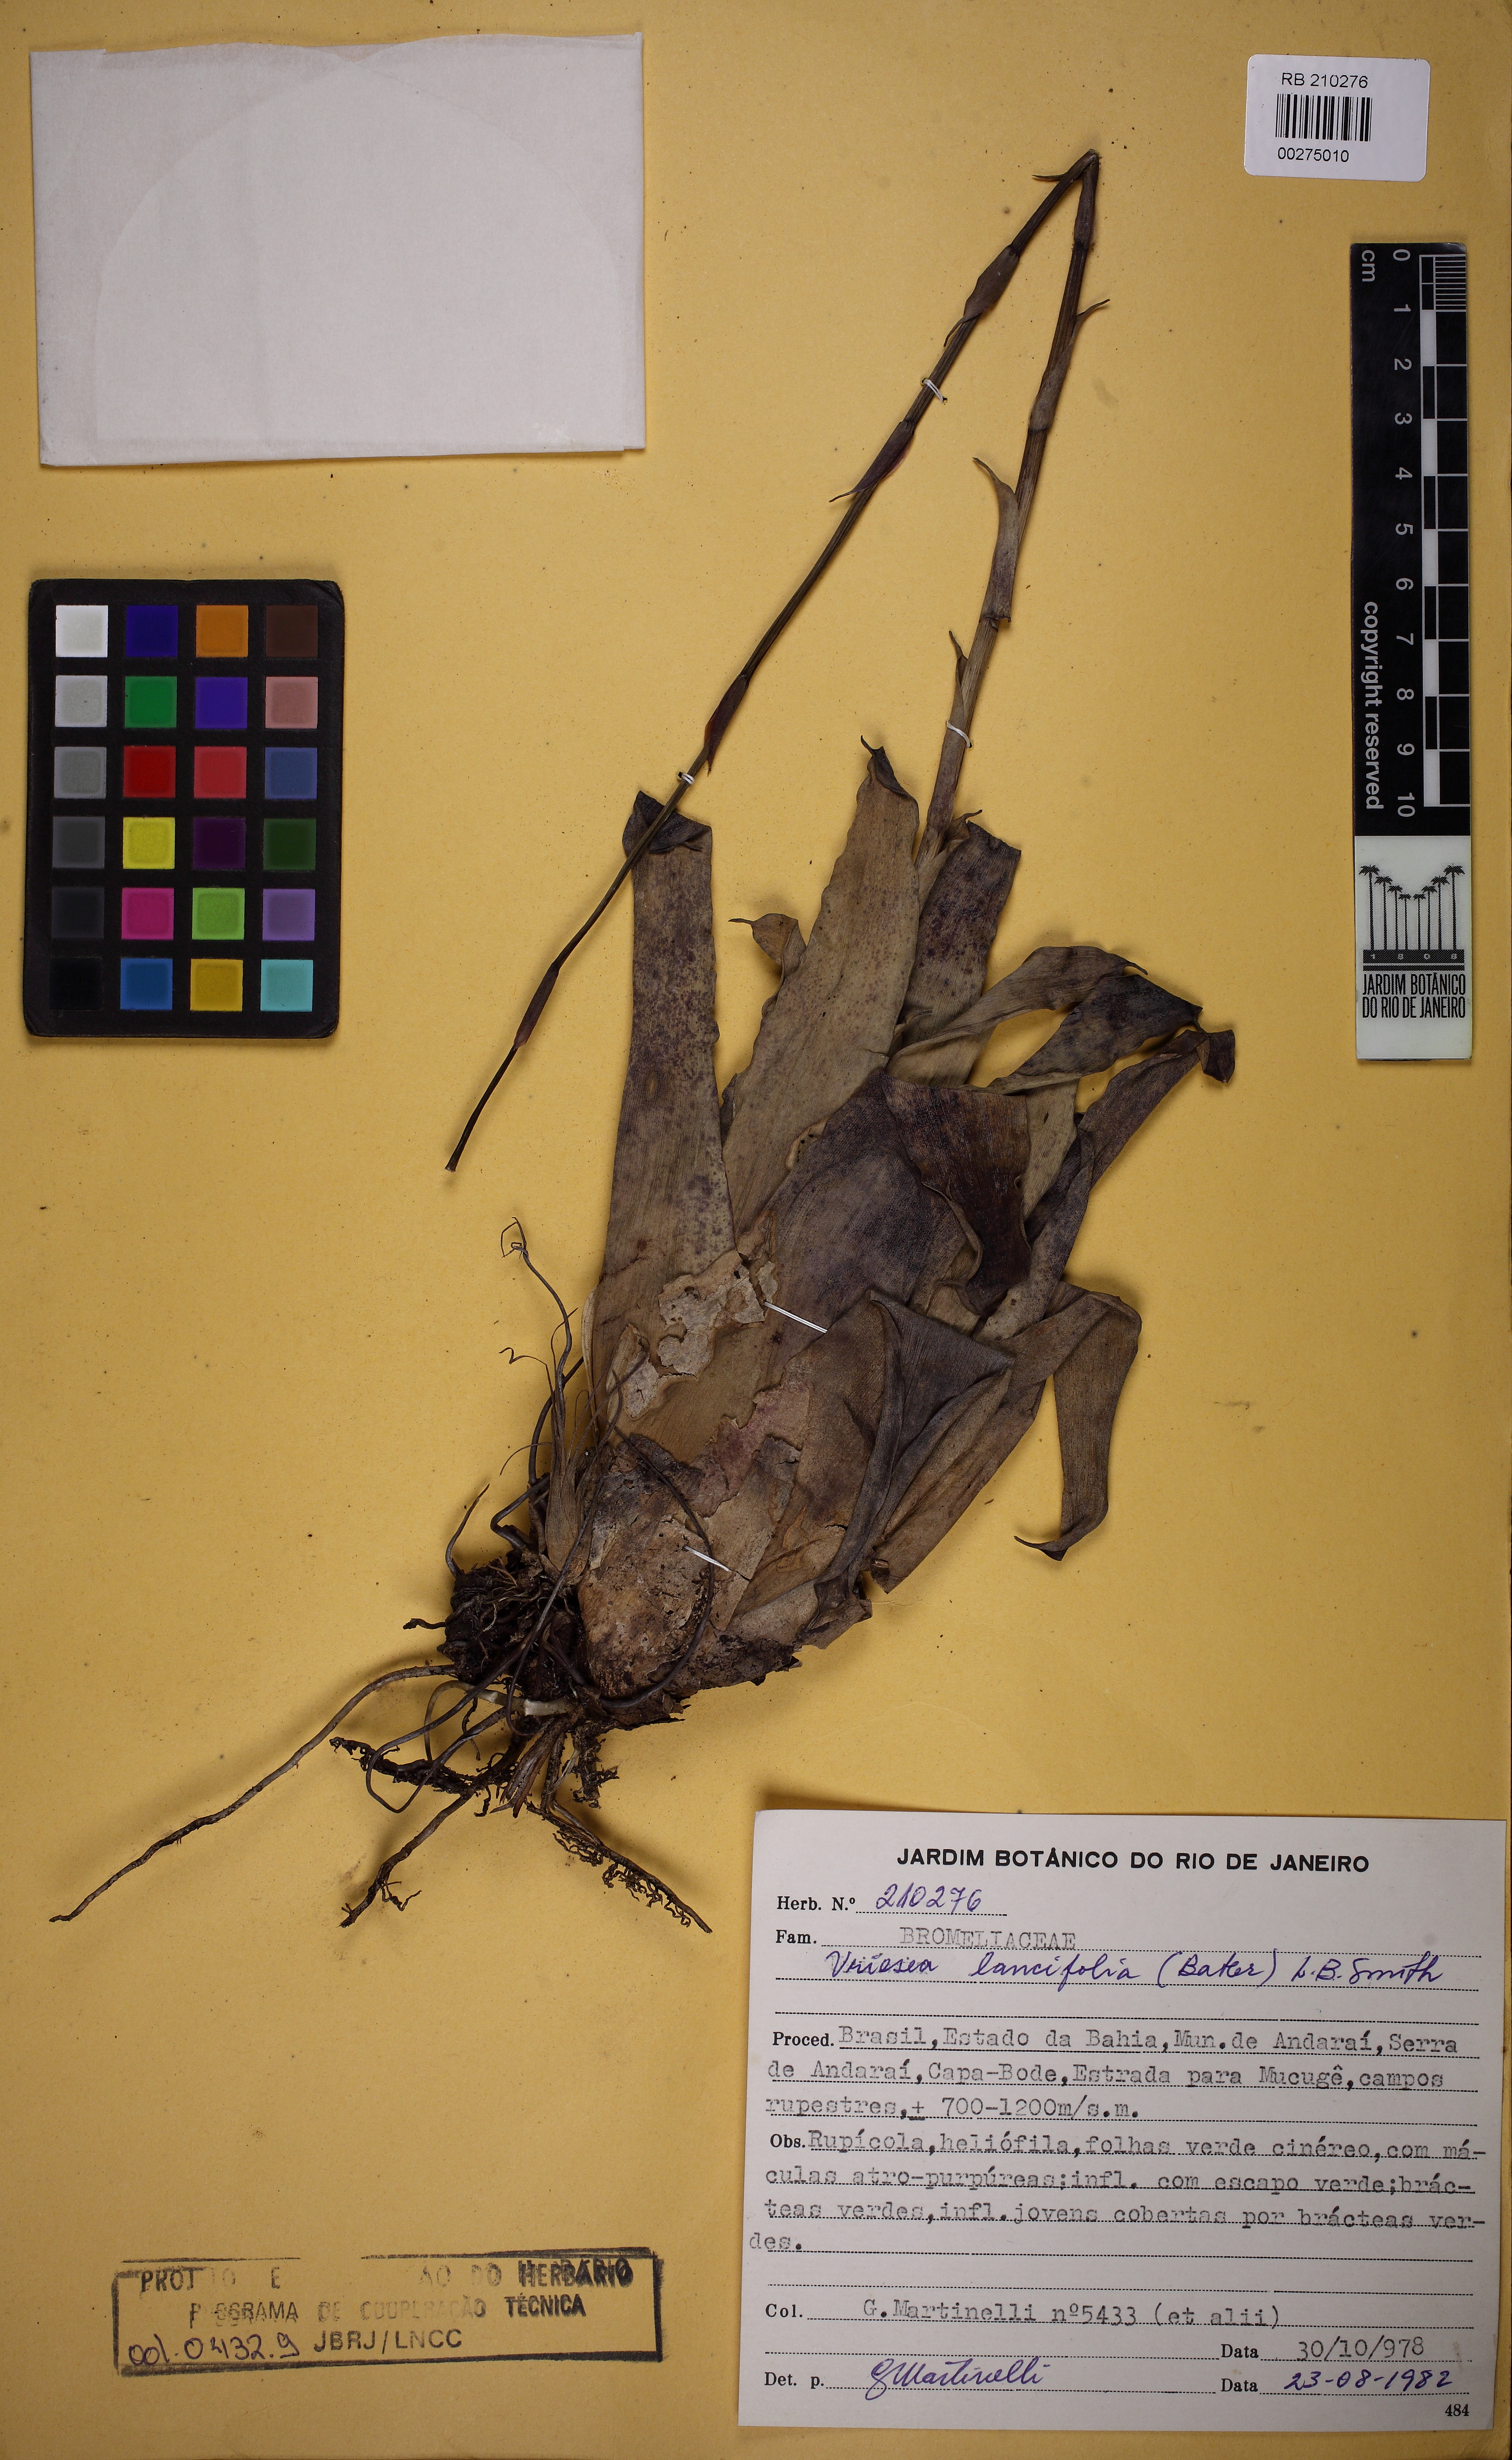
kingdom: Plantae
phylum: Tracheophyta
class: Liliopsida
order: Poales
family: Bromeliaceae
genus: Vriesea
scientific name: Vriesea lancifolia
